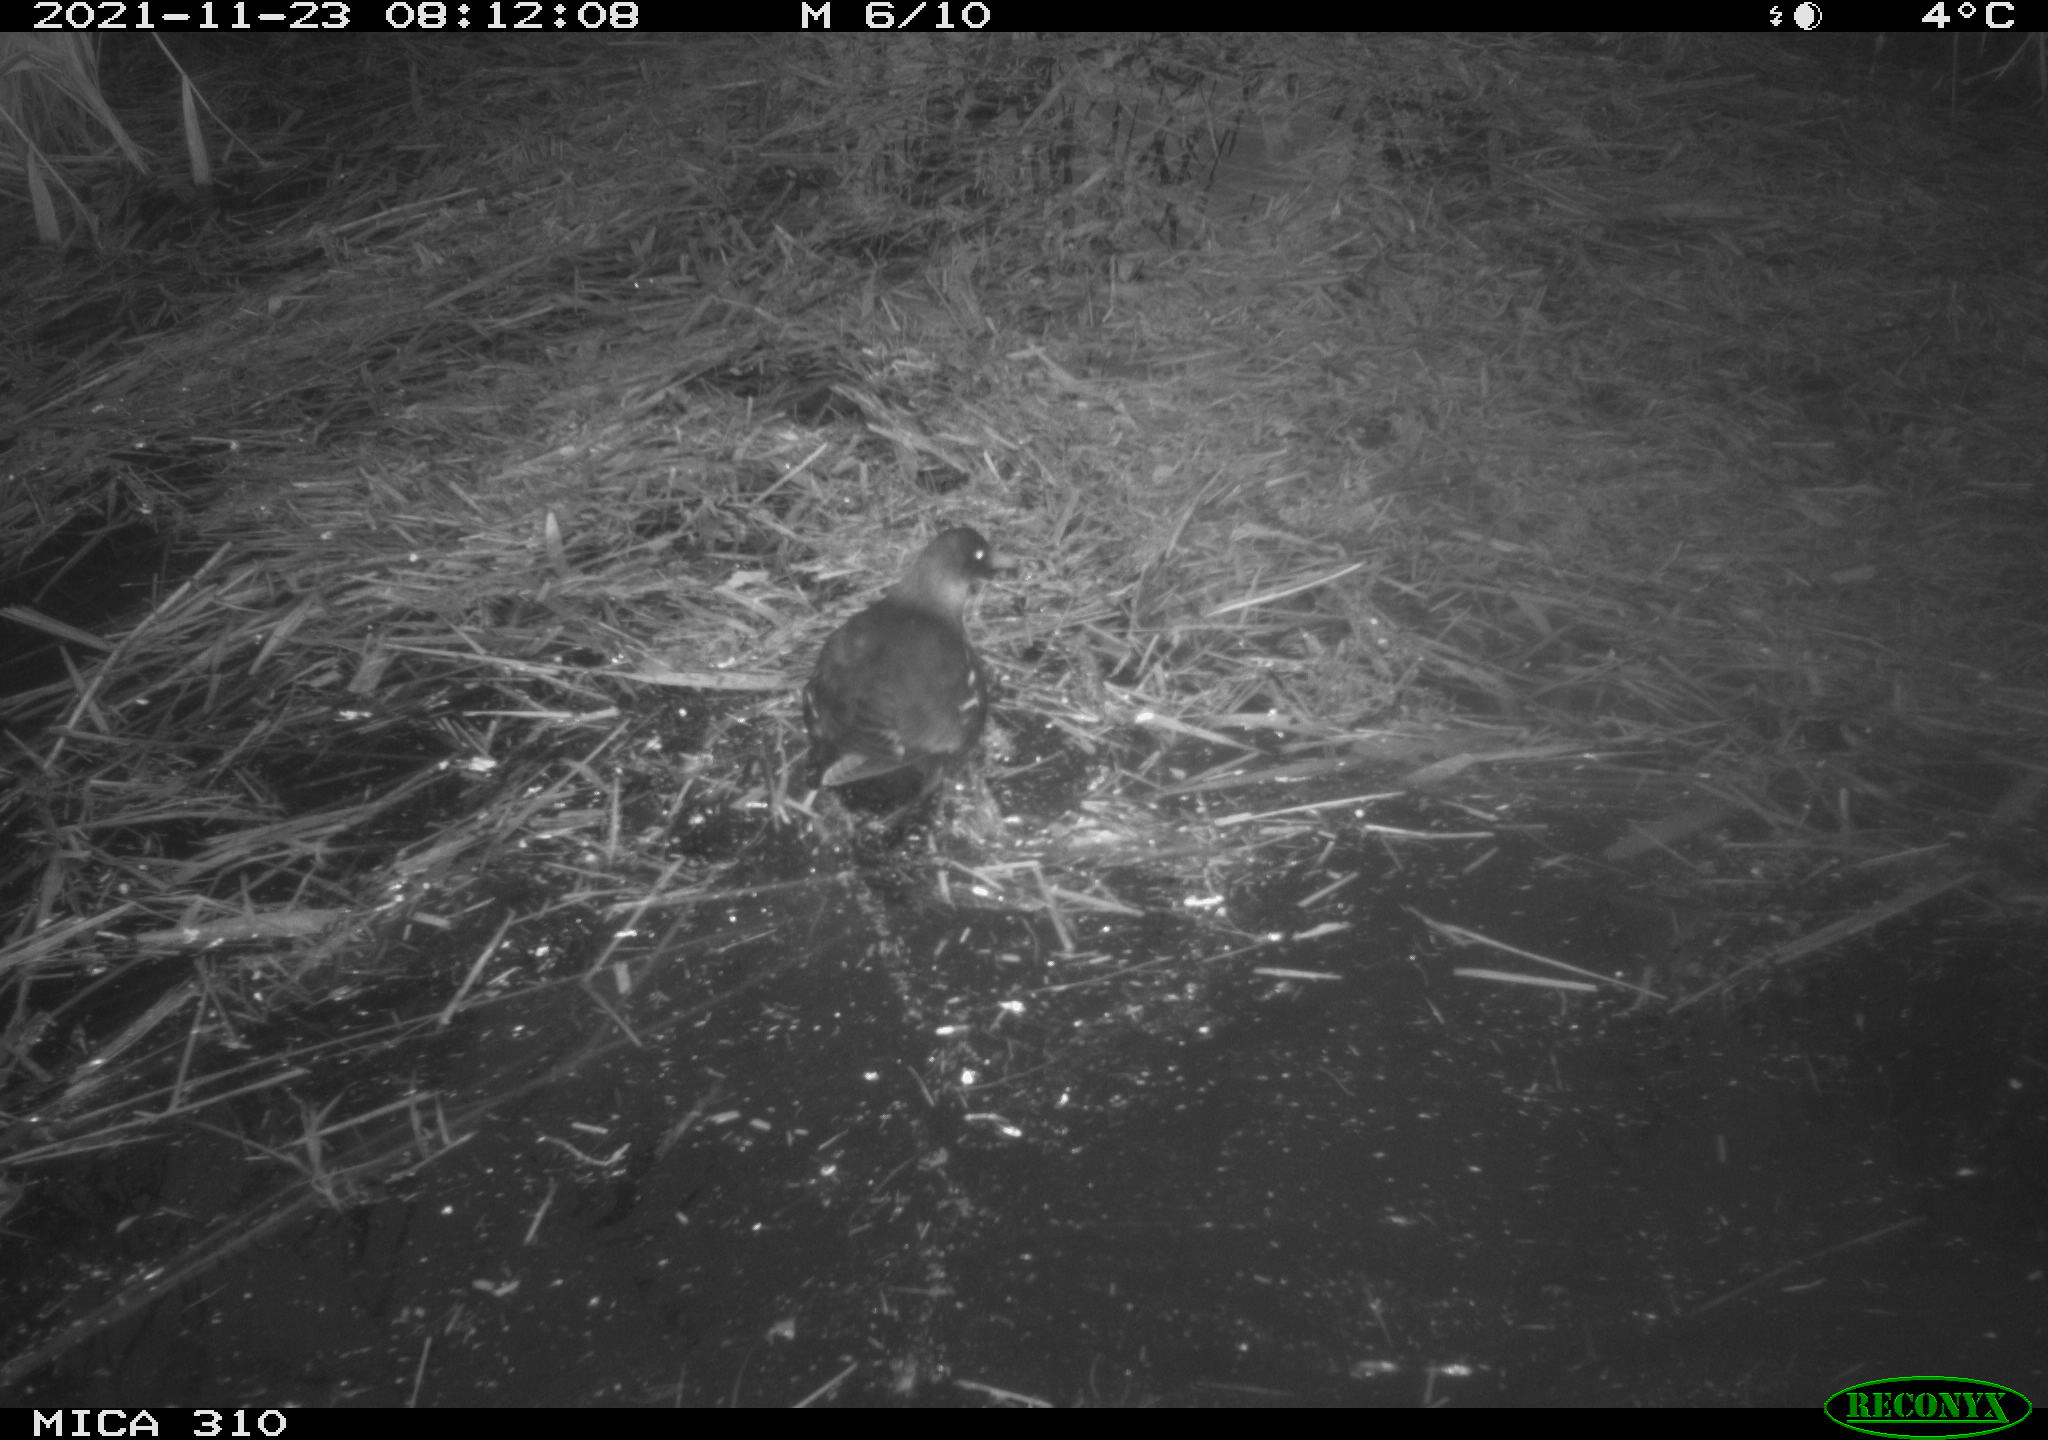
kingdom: Animalia
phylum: Chordata
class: Aves
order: Gruiformes
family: Rallidae
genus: Gallinula
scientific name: Gallinula chloropus
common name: Common moorhen
